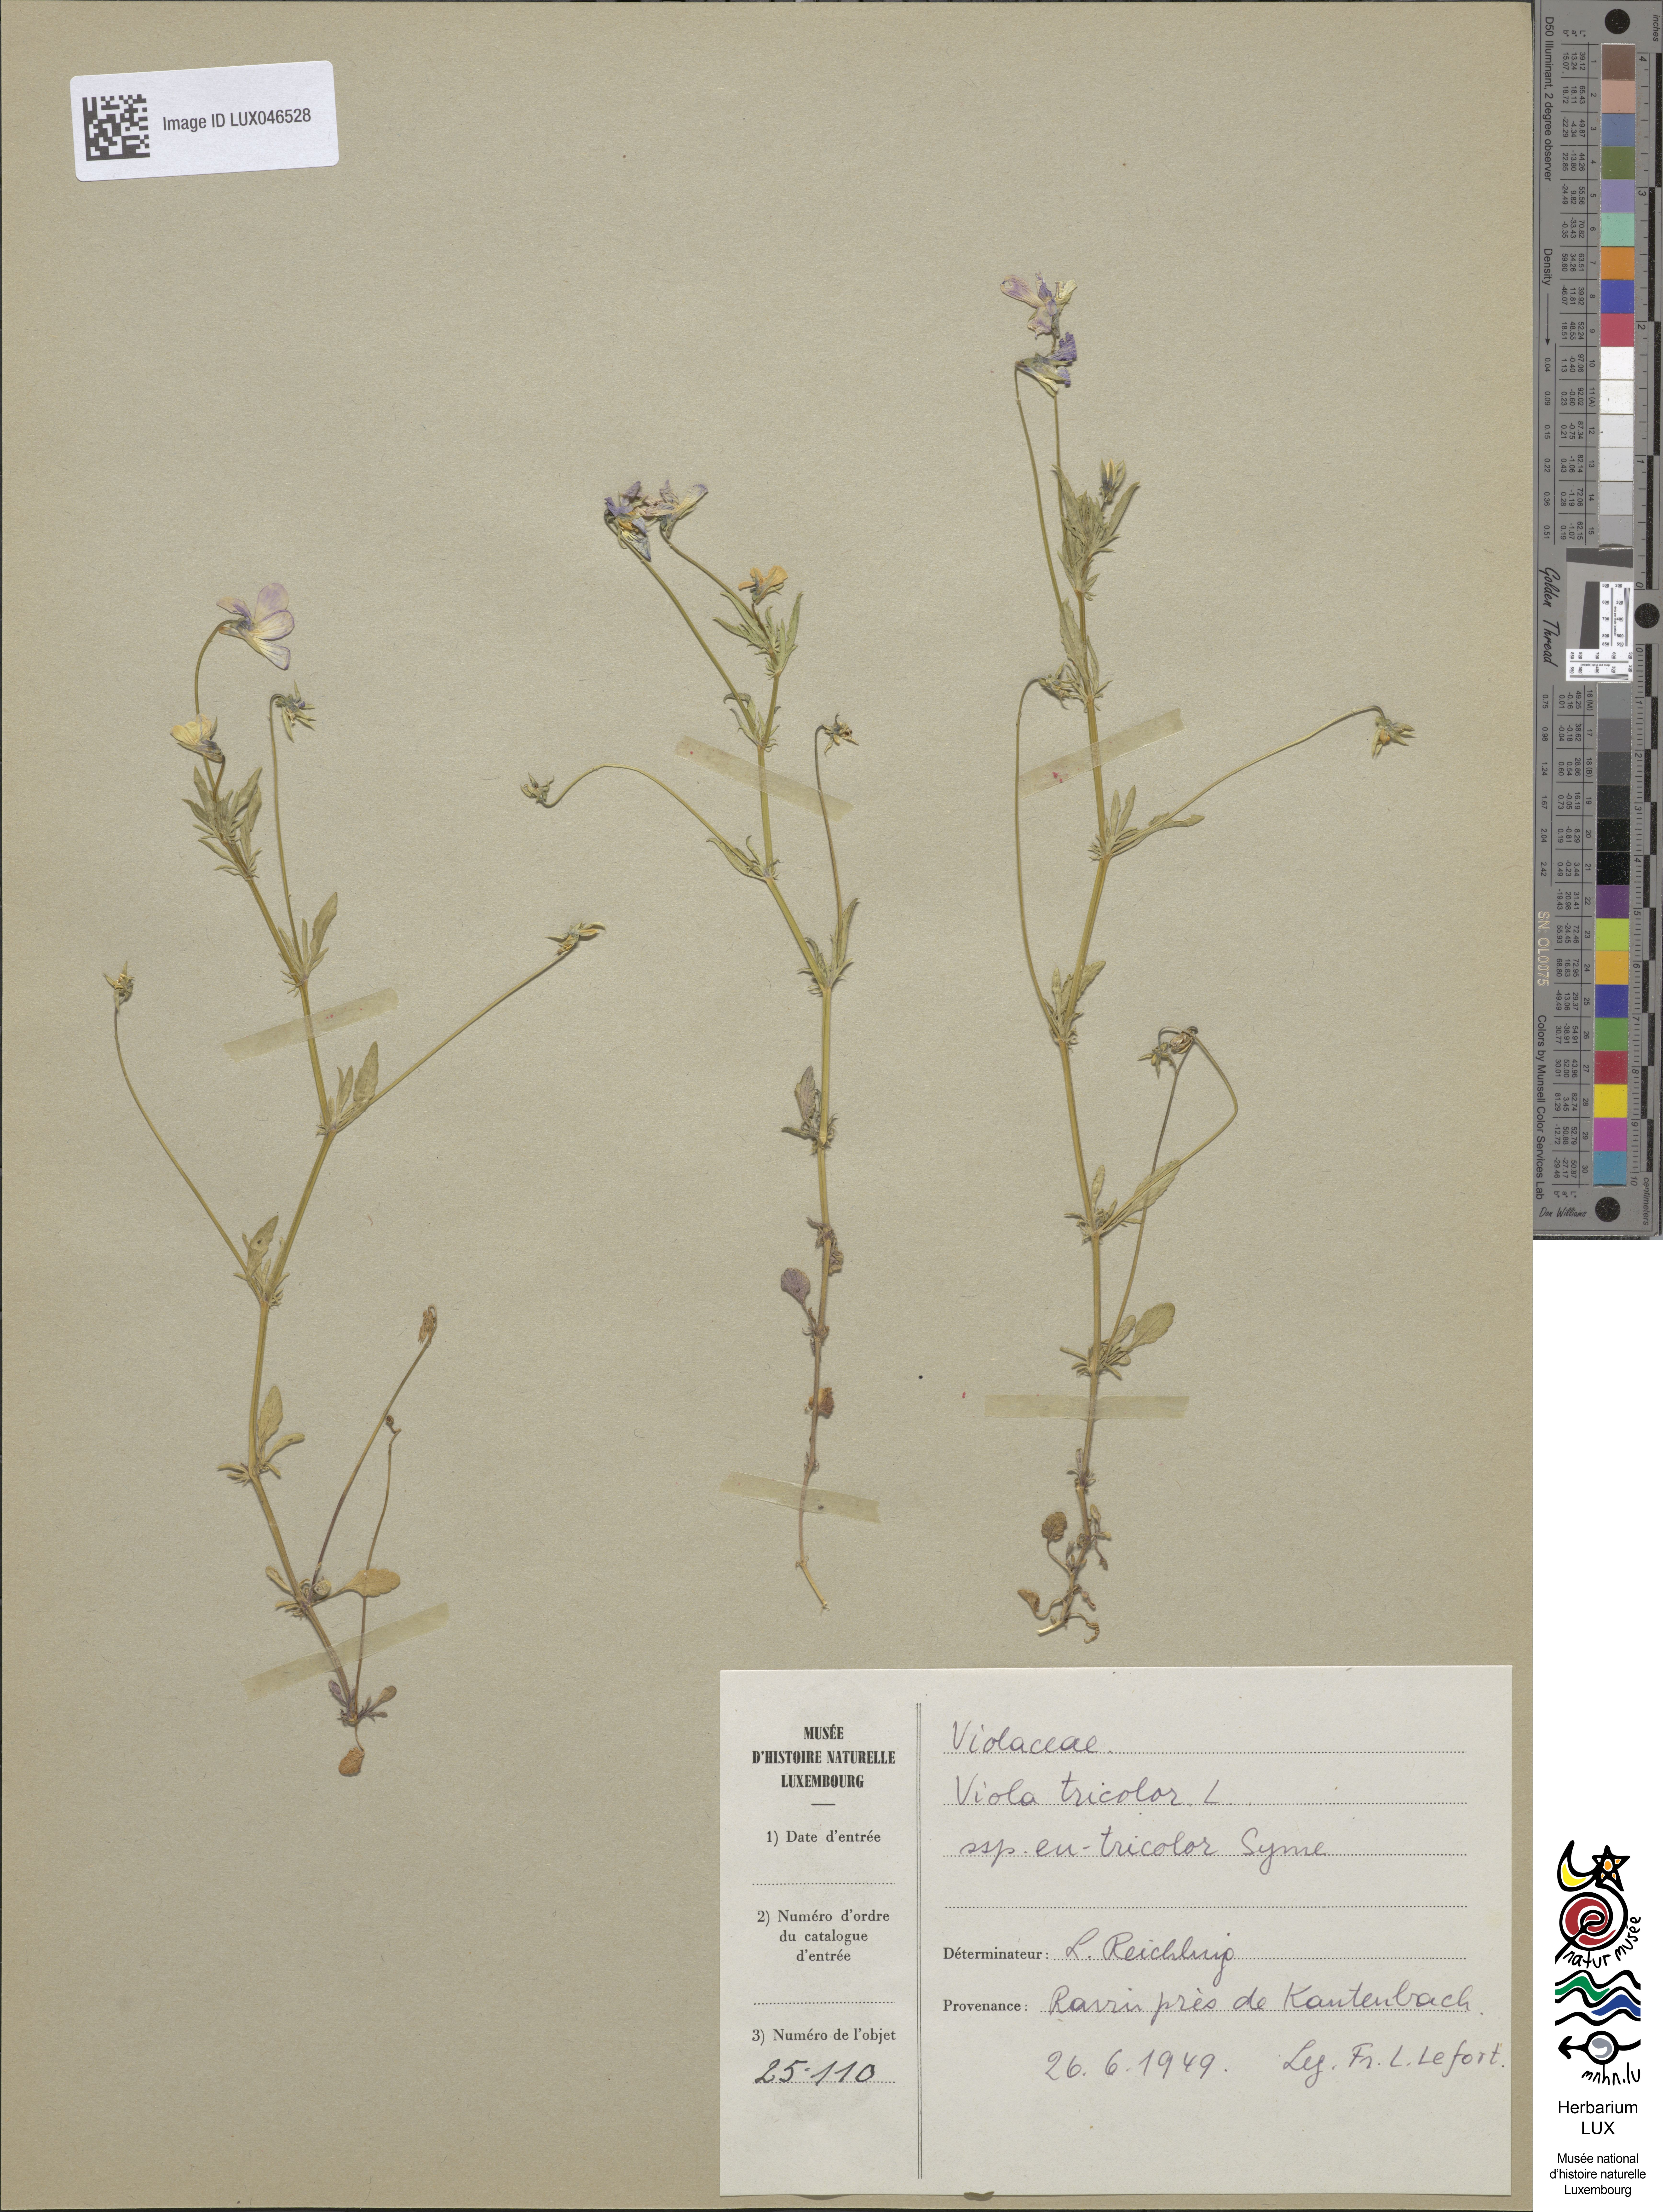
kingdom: Plantae
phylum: Tracheophyta
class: Magnoliopsida
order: Malpighiales
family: Violaceae
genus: Viola
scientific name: Viola tricolor
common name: Pansy
